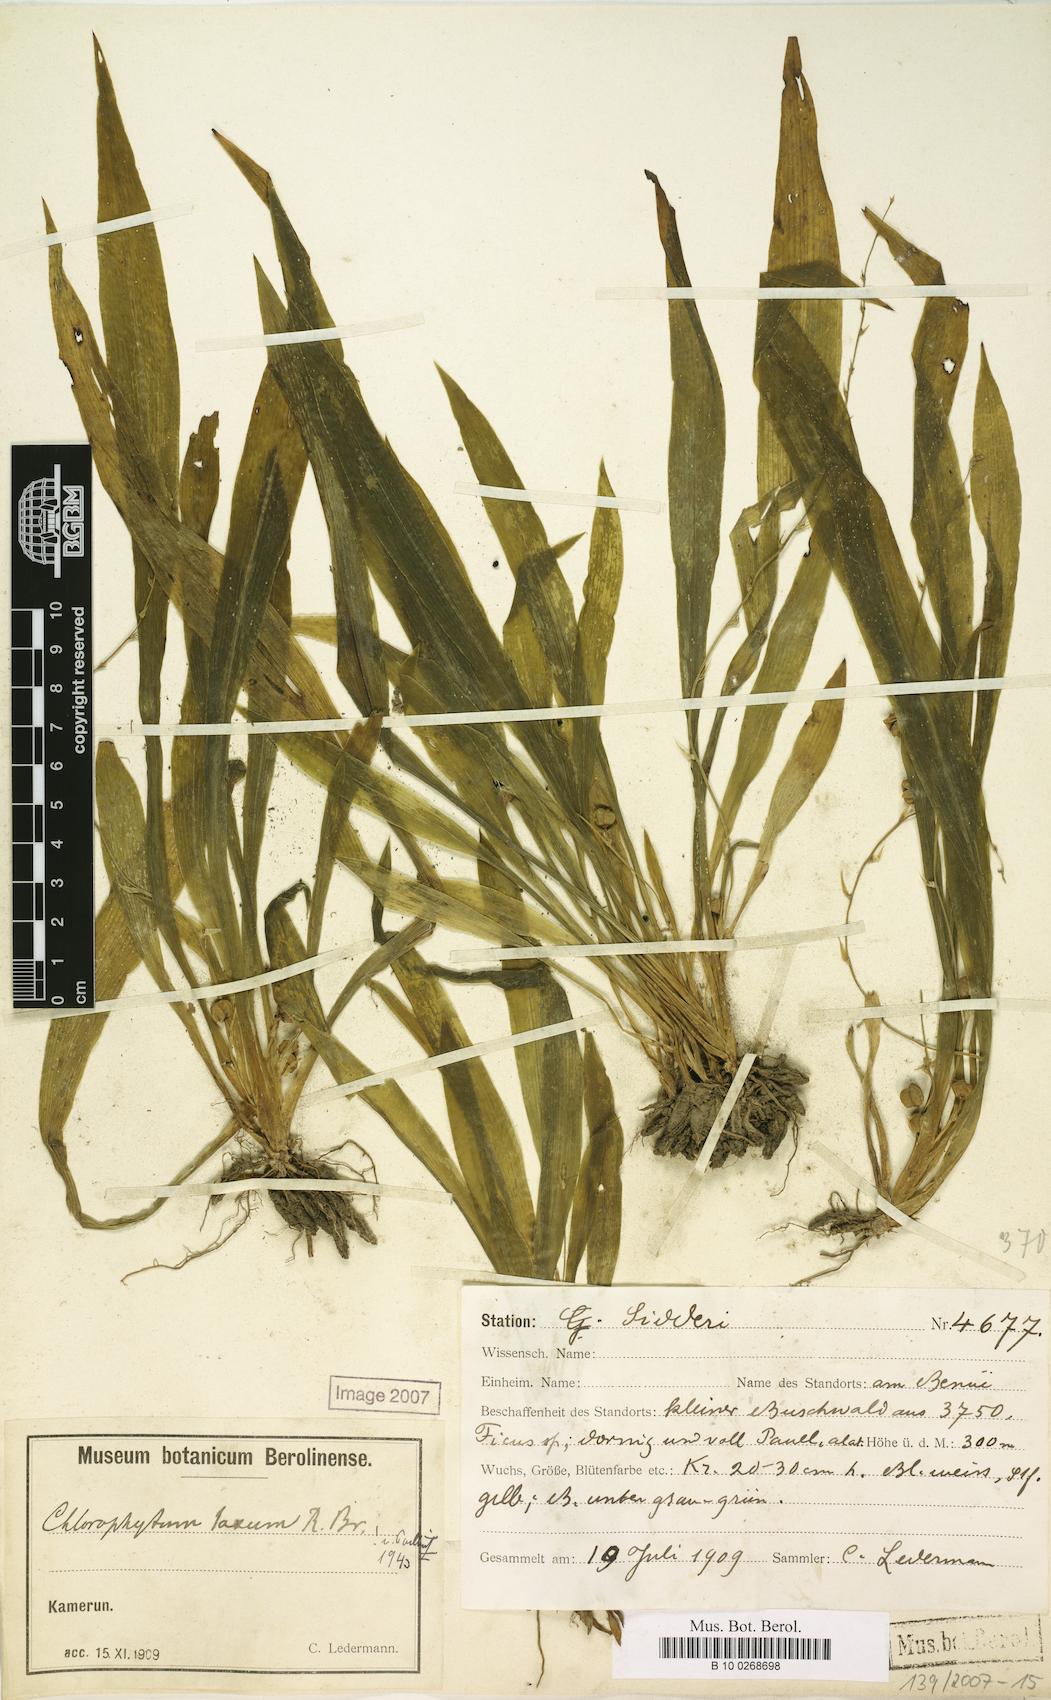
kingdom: Plantae
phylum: Tracheophyta
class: Liliopsida
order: Asparagales
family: Asparagaceae
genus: Chlorophytum
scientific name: Chlorophytum debile
